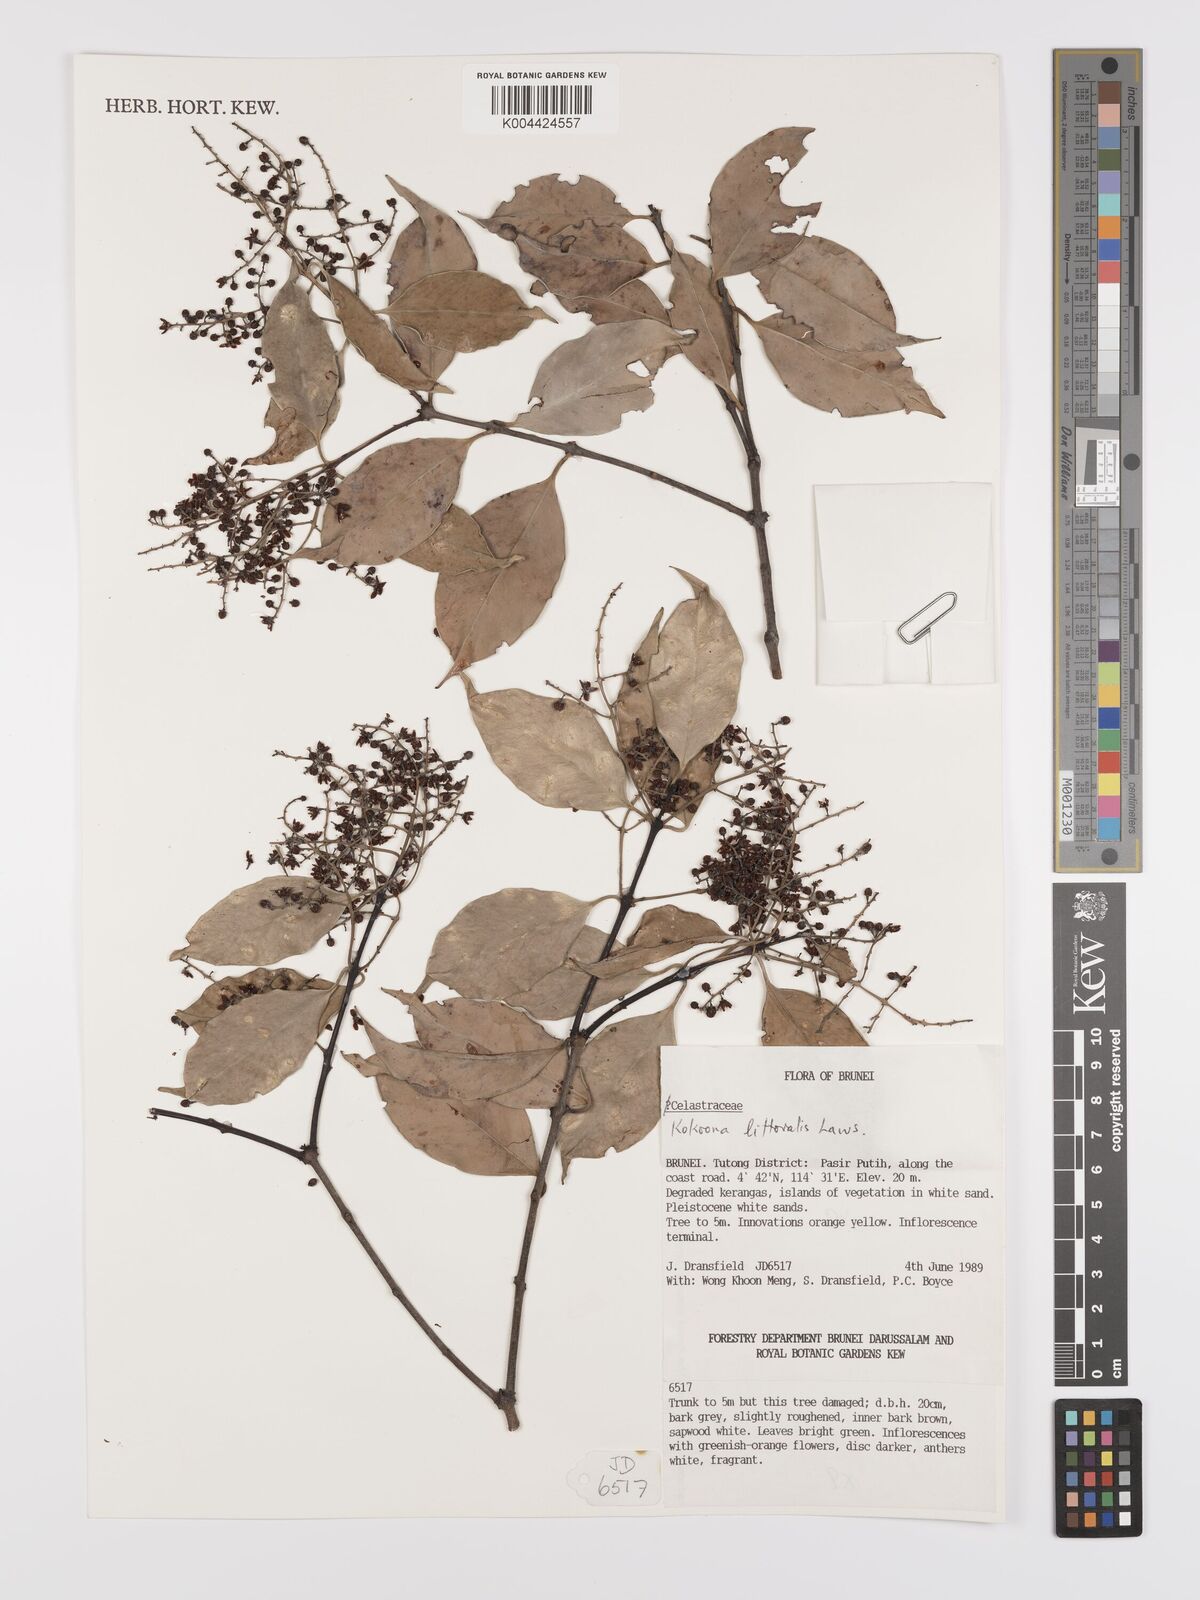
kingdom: Plantae
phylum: Tracheophyta
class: Magnoliopsida
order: Celastrales
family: Celastraceae
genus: Kokoona
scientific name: Kokoona littoralis
